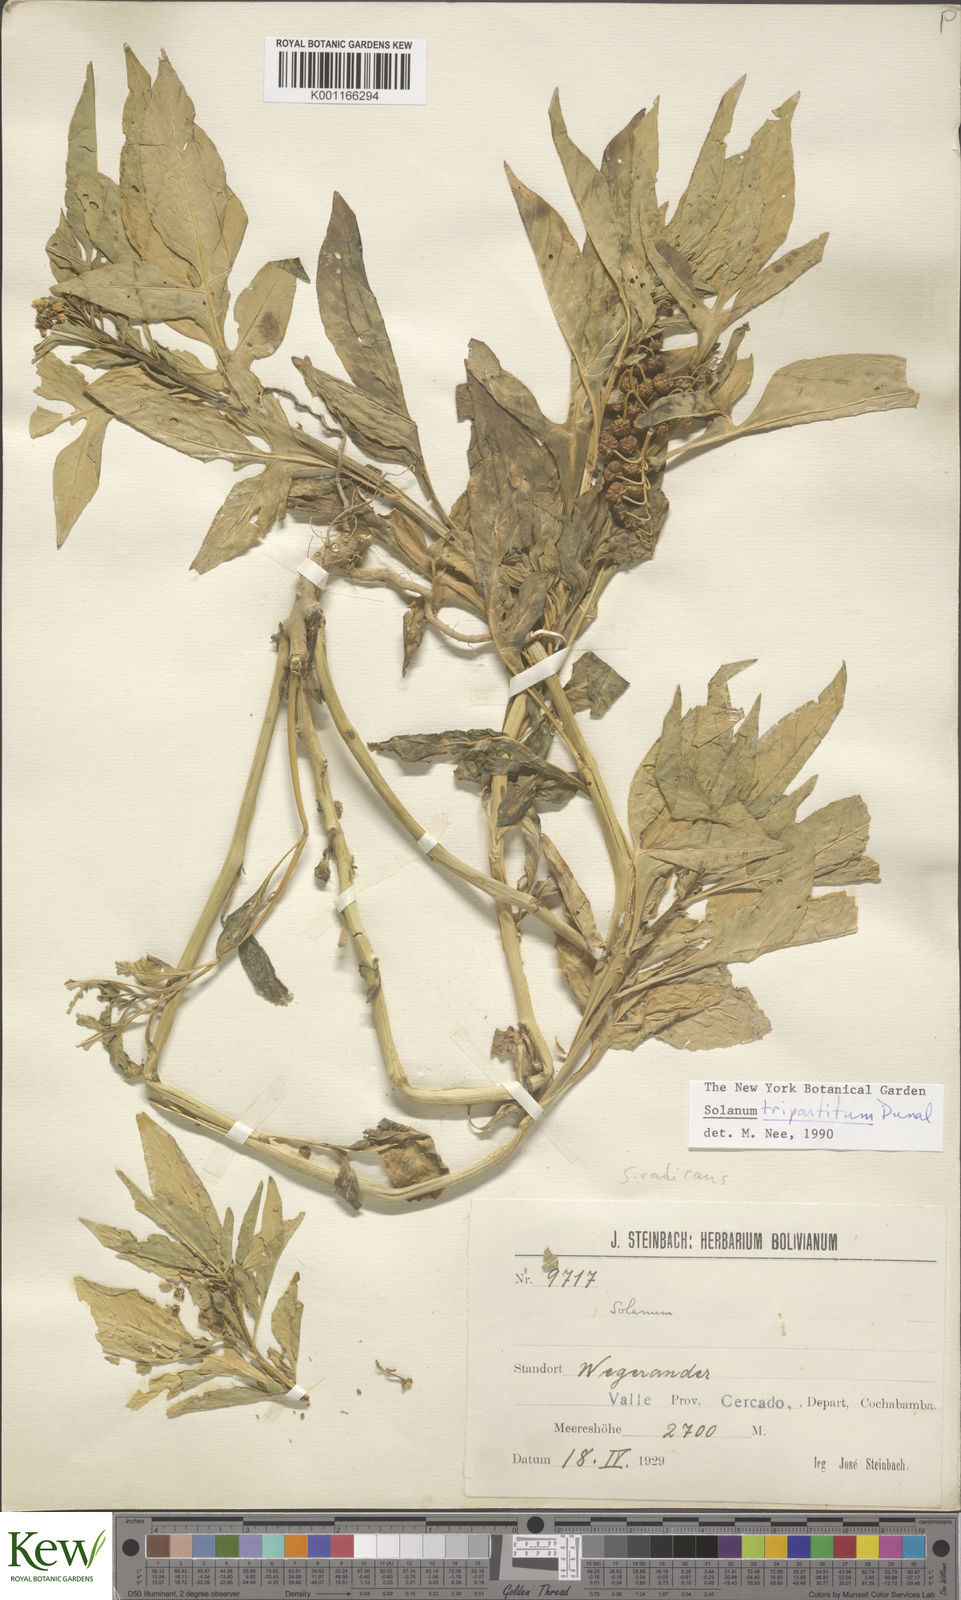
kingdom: Plantae
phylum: Tracheophyta
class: Magnoliopsida
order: Solanales
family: Solanaceae
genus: Solanum
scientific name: Solanum tripartitum
